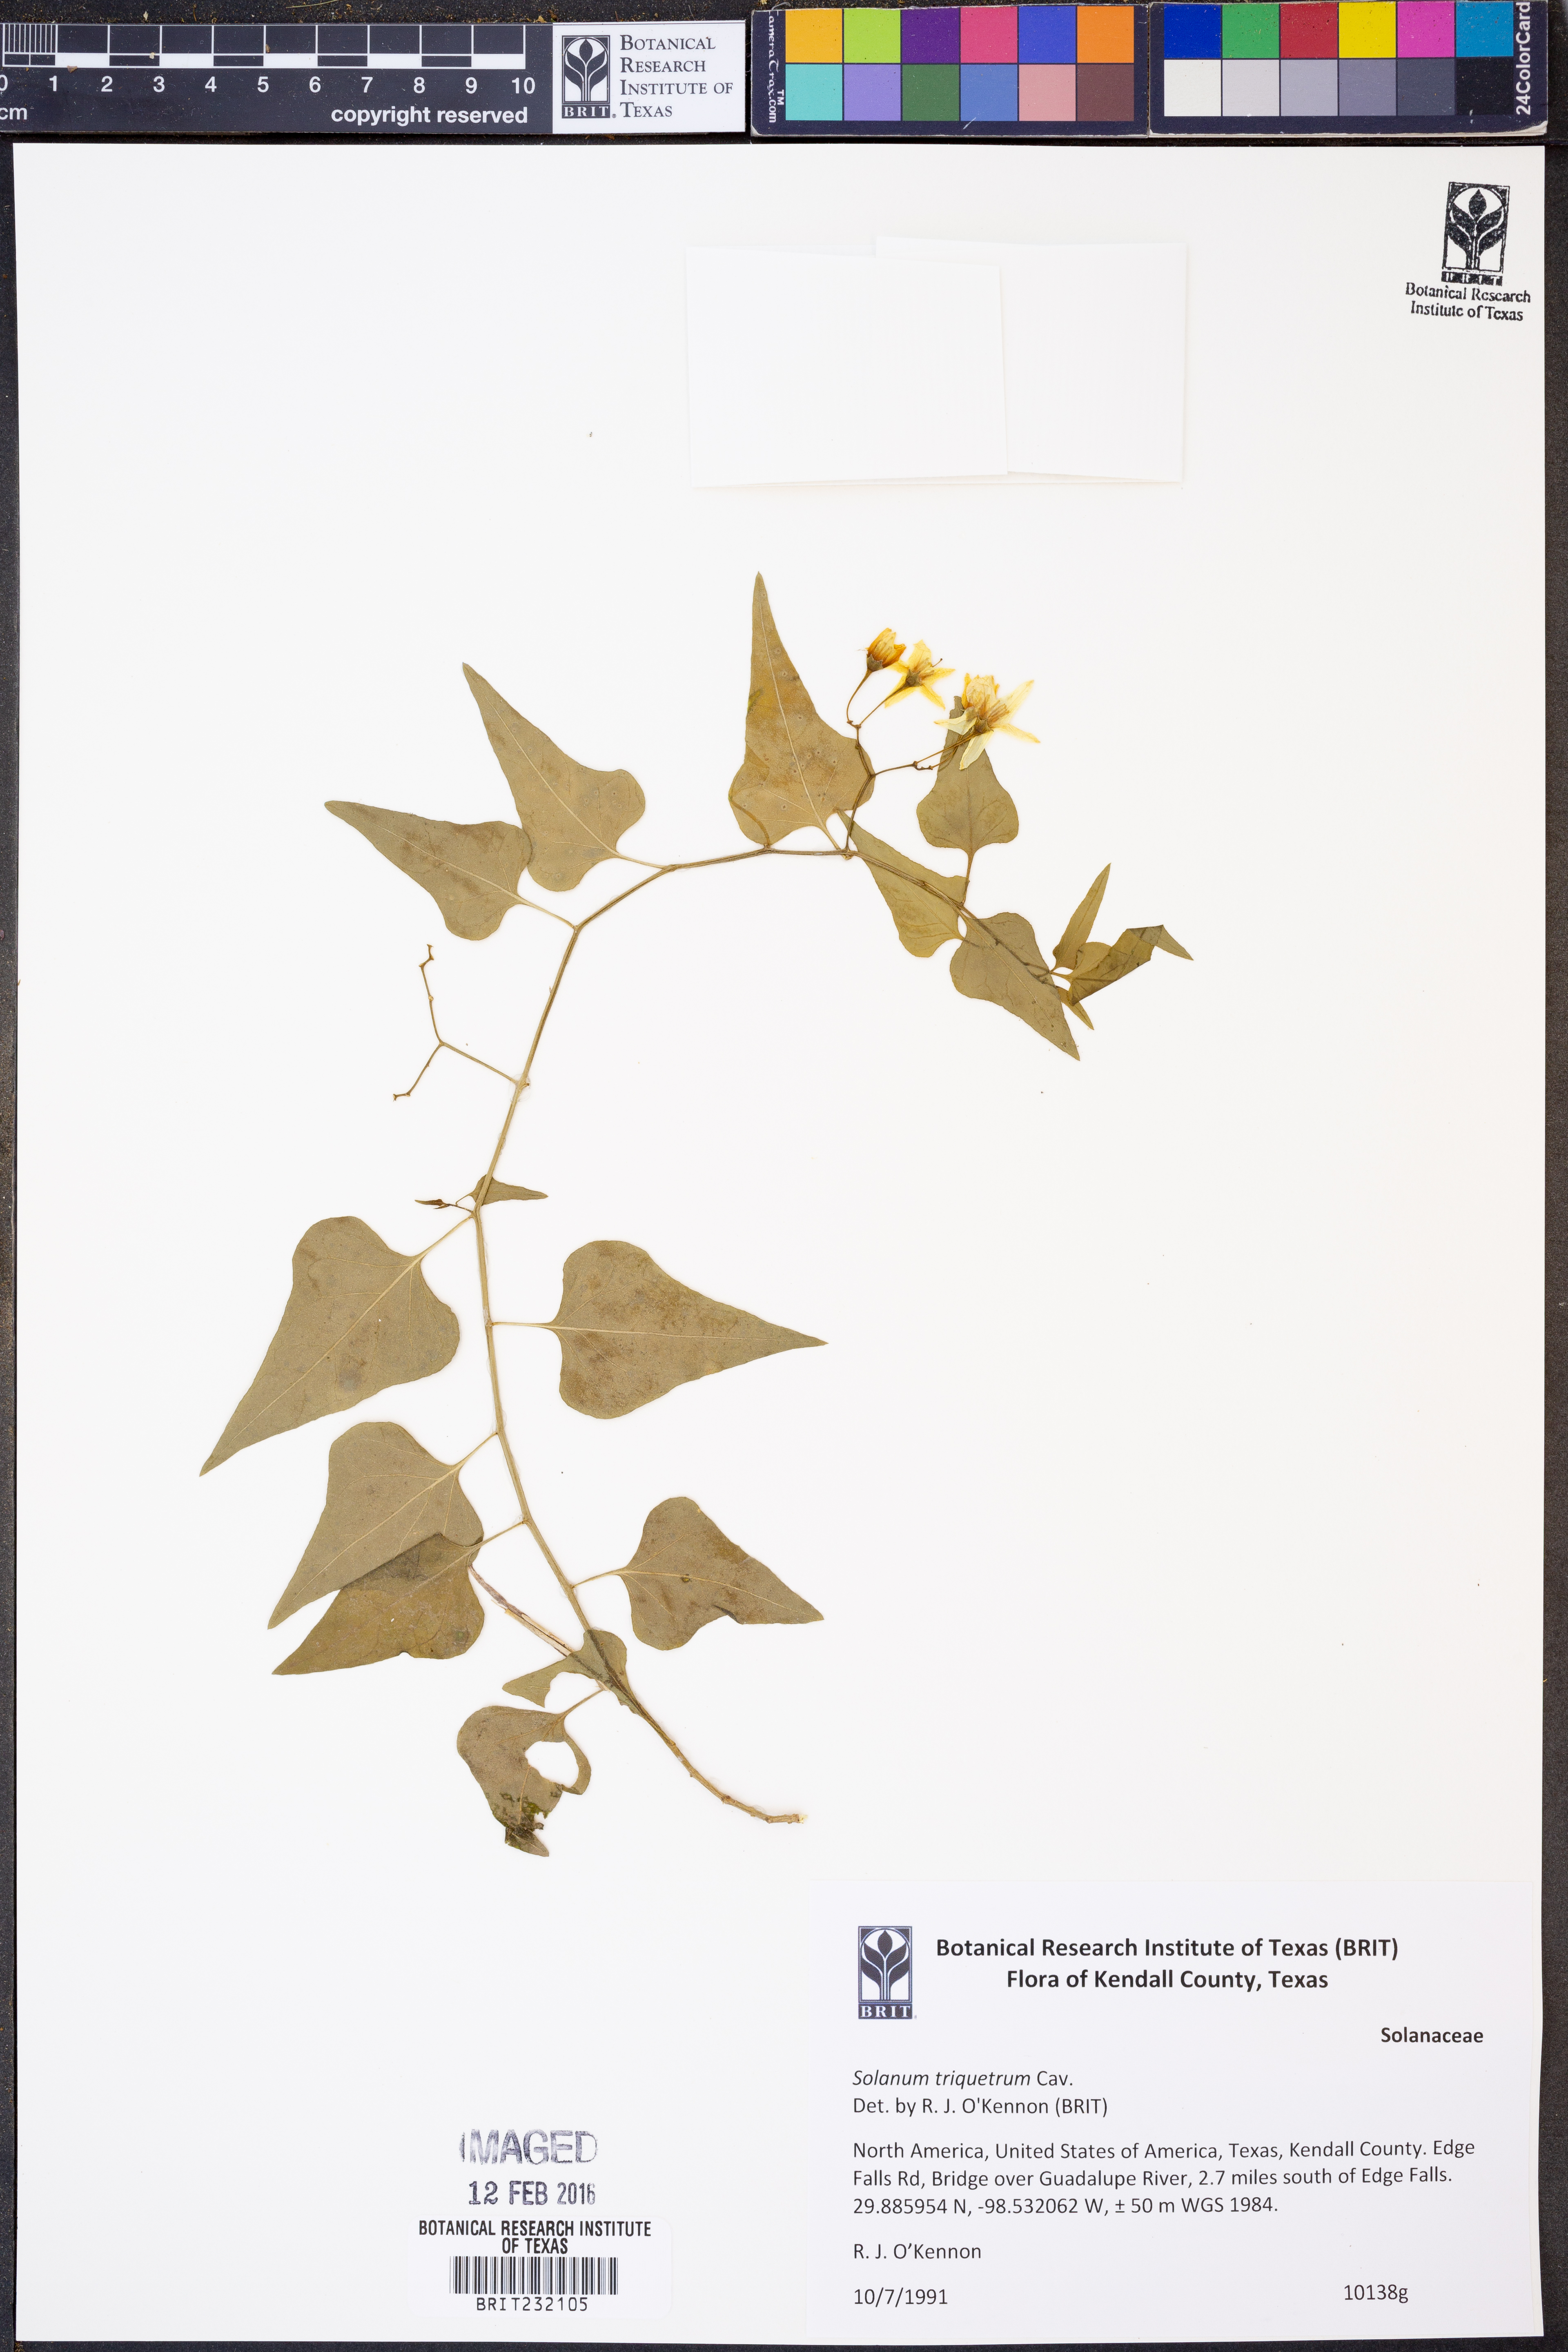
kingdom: Plantae
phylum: Tracheophyta
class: Magnoliopsida
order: Solanales
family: Solanaceae
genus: Solanum
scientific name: Solanum triquetrum
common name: Texas nightshade
